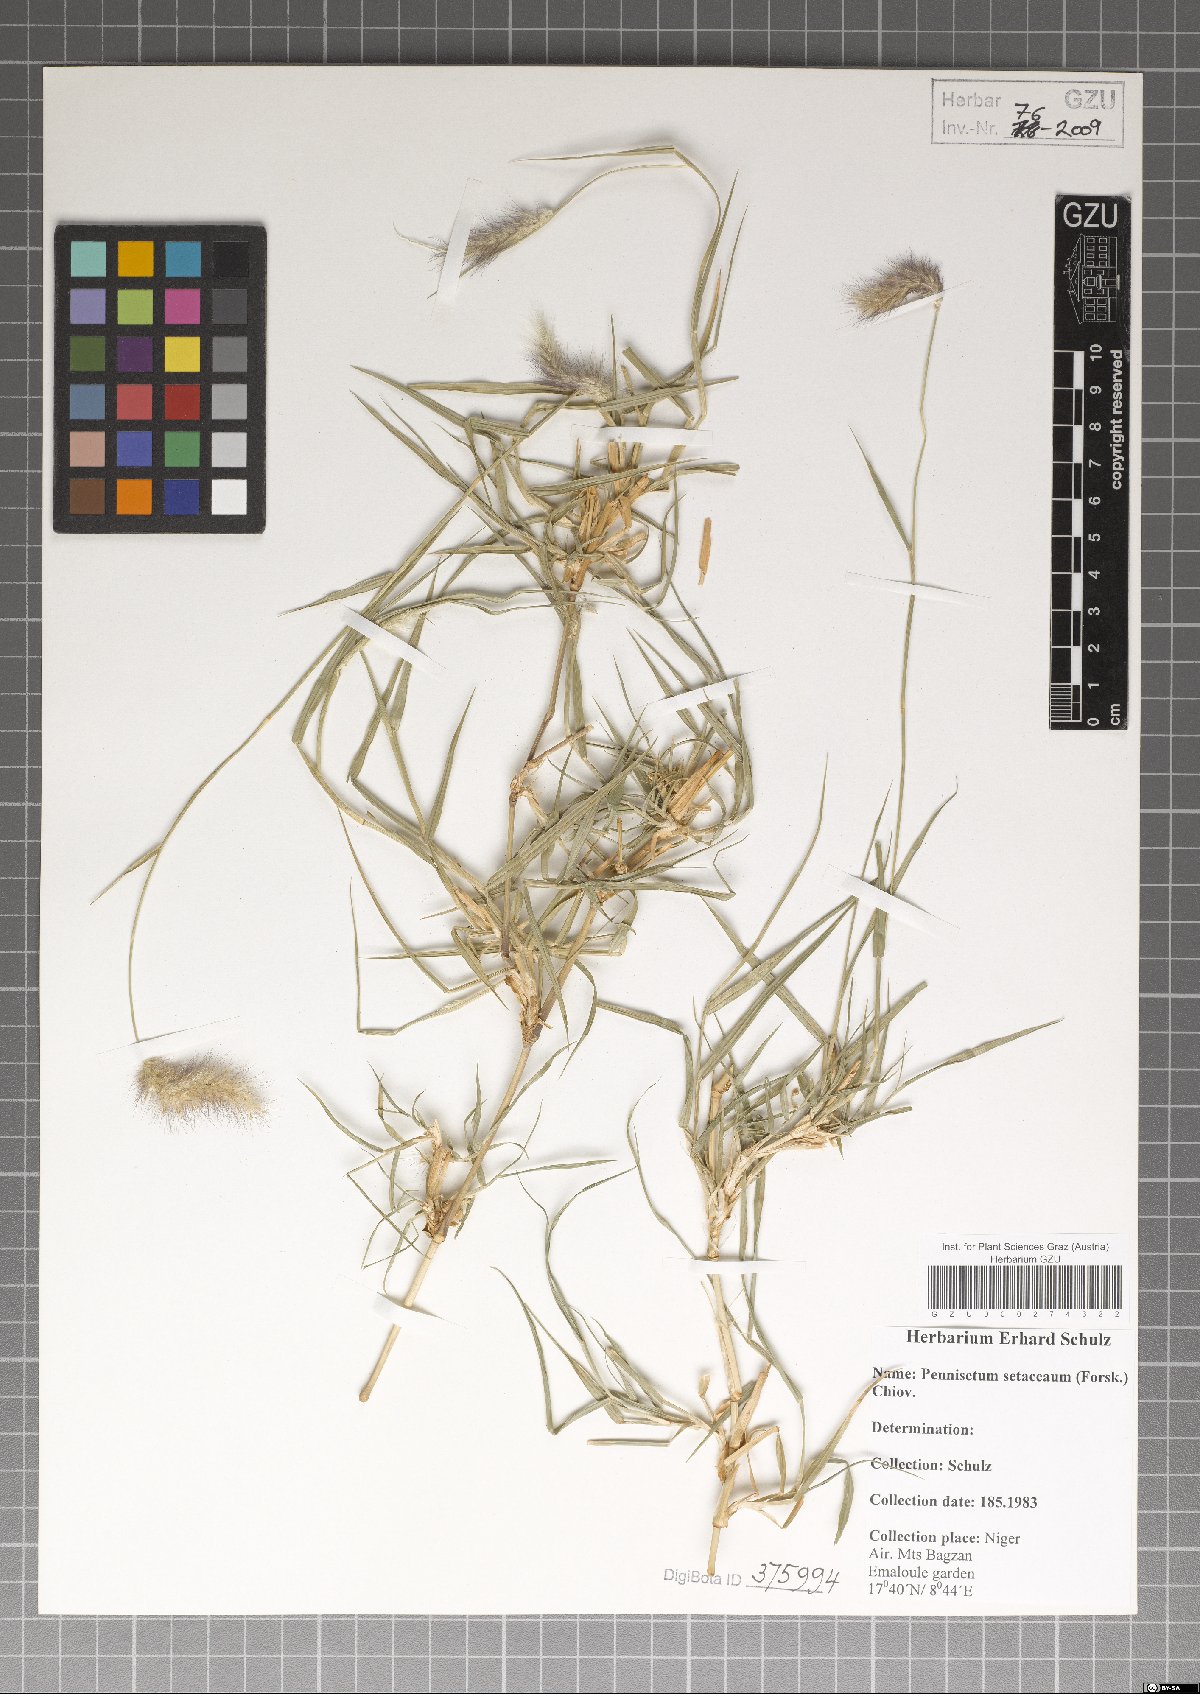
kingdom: Plantae
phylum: Tracheophyta
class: Liliopsida
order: Poales
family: Poaceae
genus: Cenchrus
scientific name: Cenchrus setaceus
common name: Crimson fountaingrass
